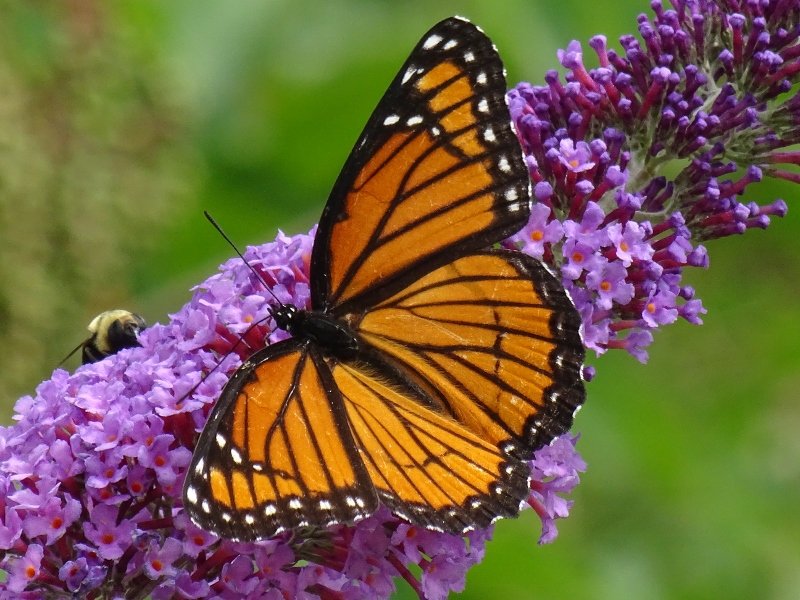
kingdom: Animalia
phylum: Arthropoda
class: Insecta
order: Lepidoptera
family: Nymphalidae
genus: Limenitis
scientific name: Limenitis archippus
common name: Viceroy
